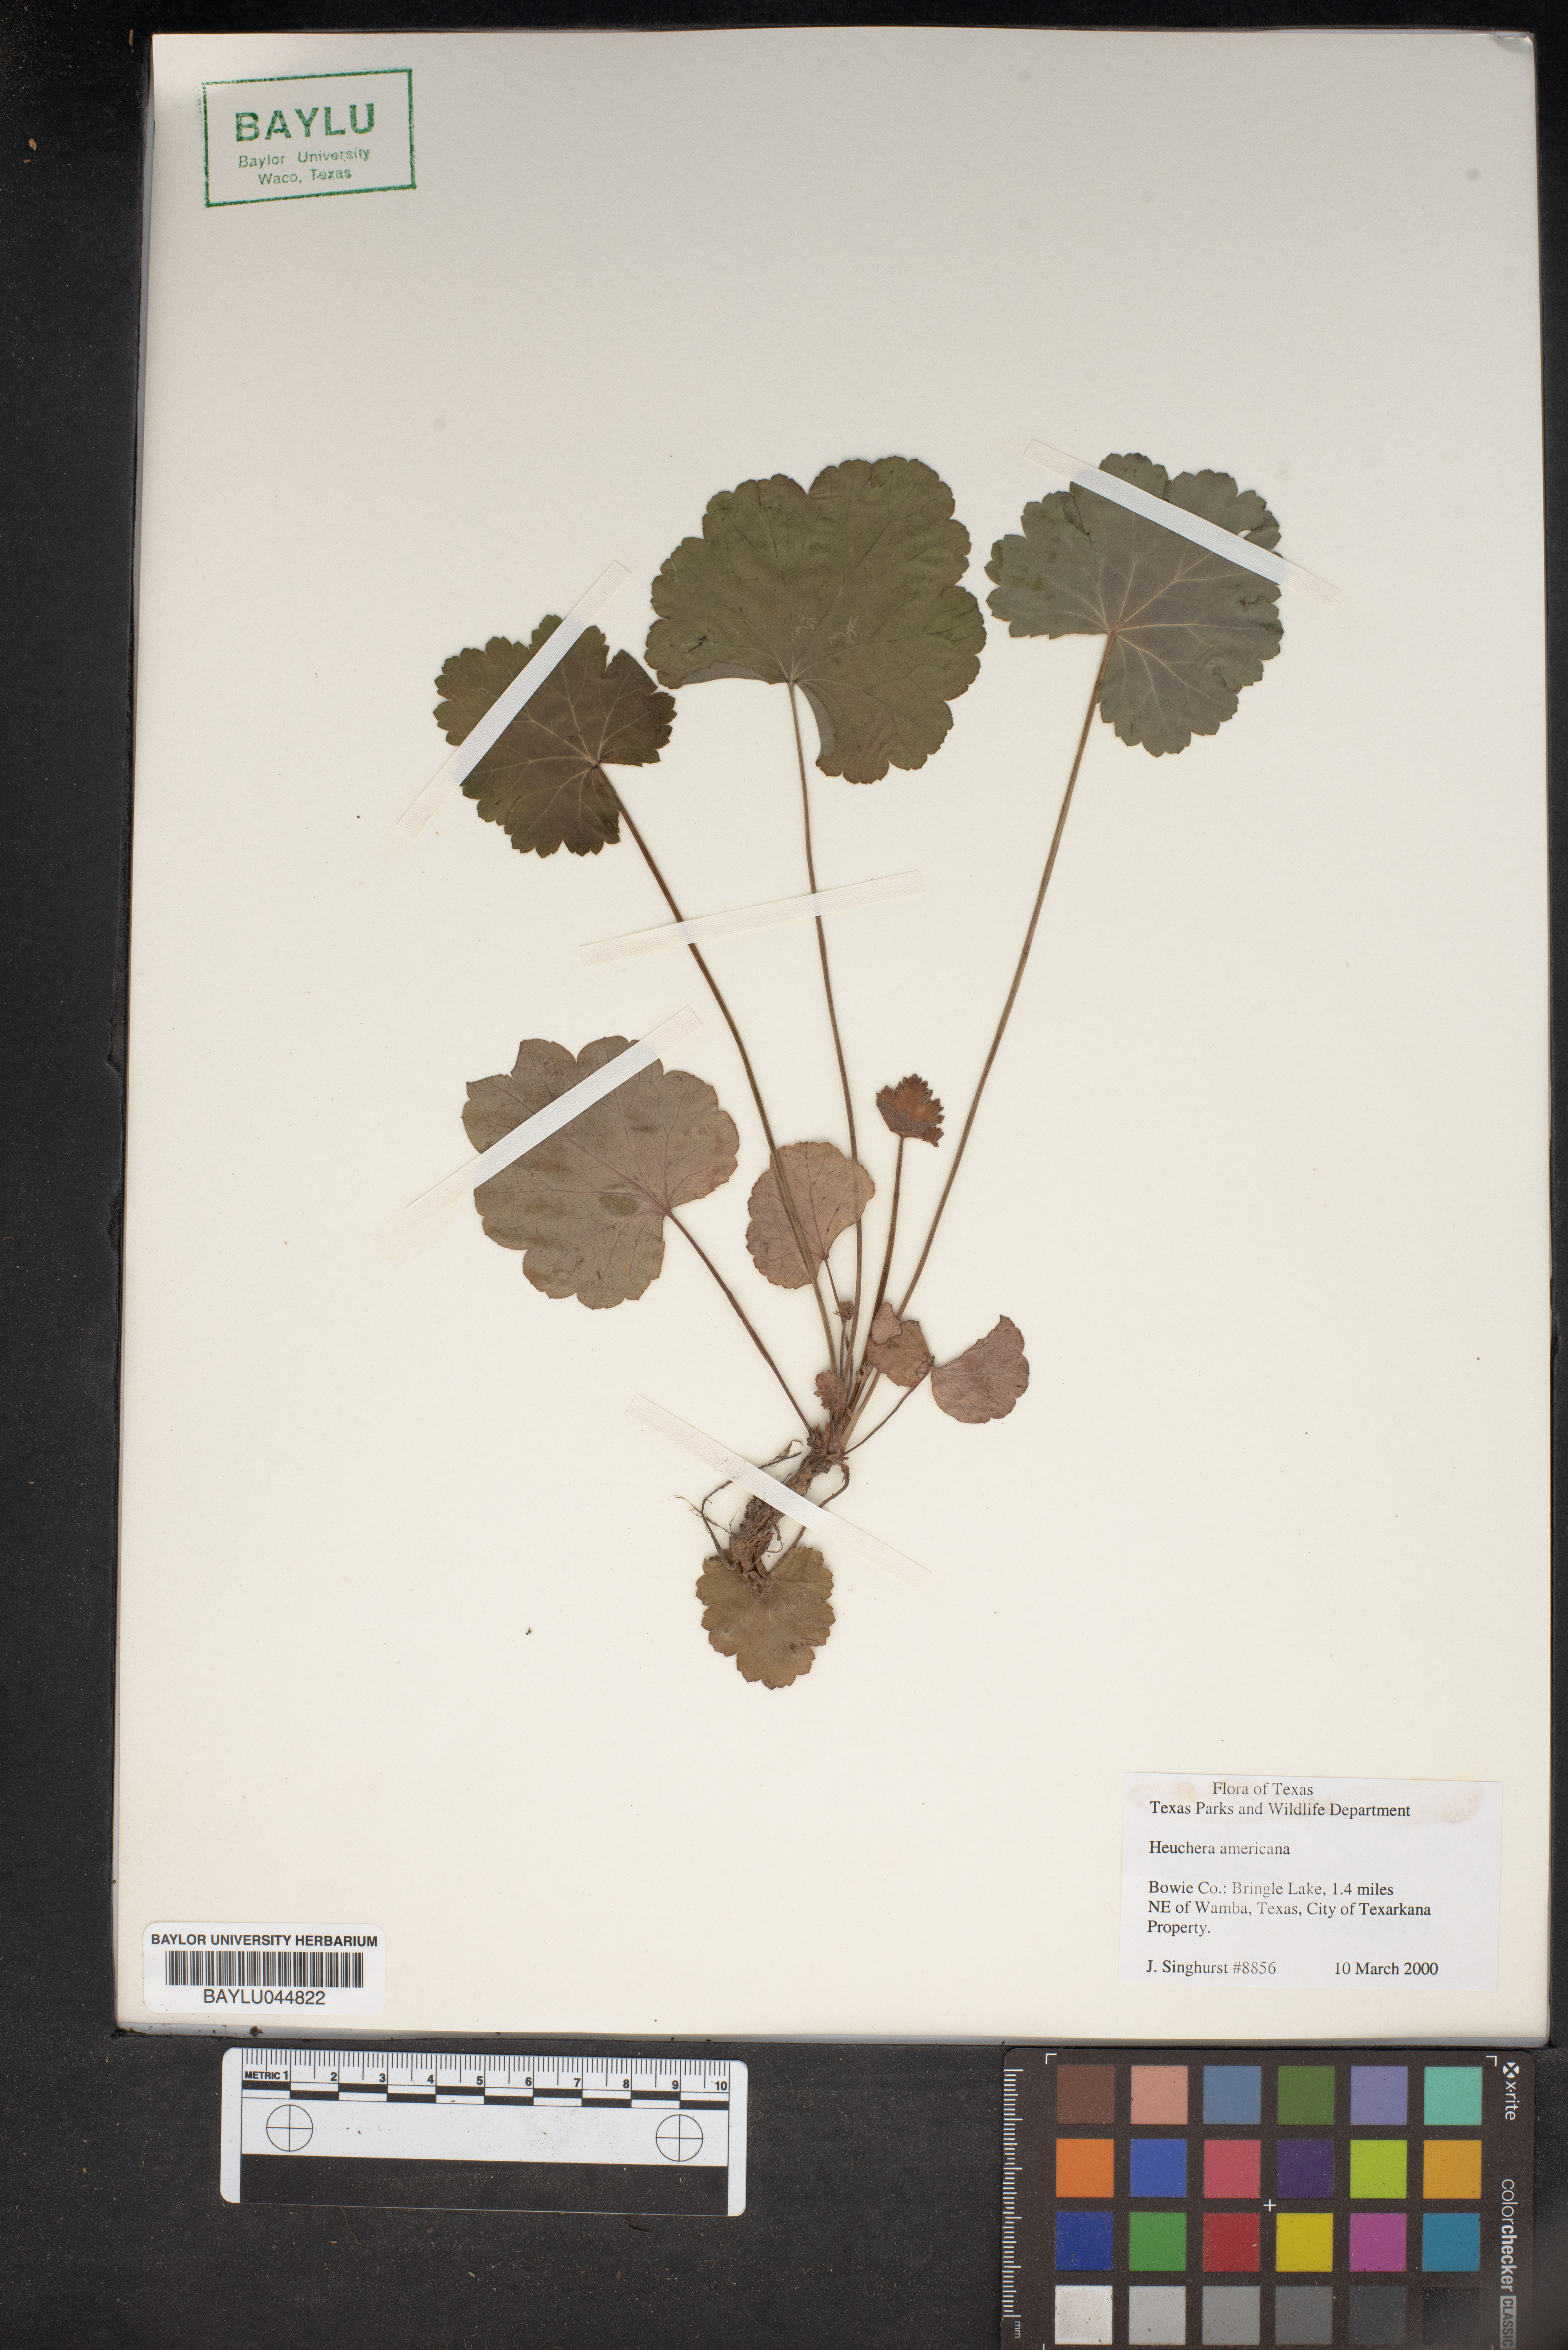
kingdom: Plantae
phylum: Tracheophyta
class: Magnoliopsida
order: Saxifragales
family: Saxifragaceae
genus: Heuchera
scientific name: Heuchera americana
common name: Alumroot
